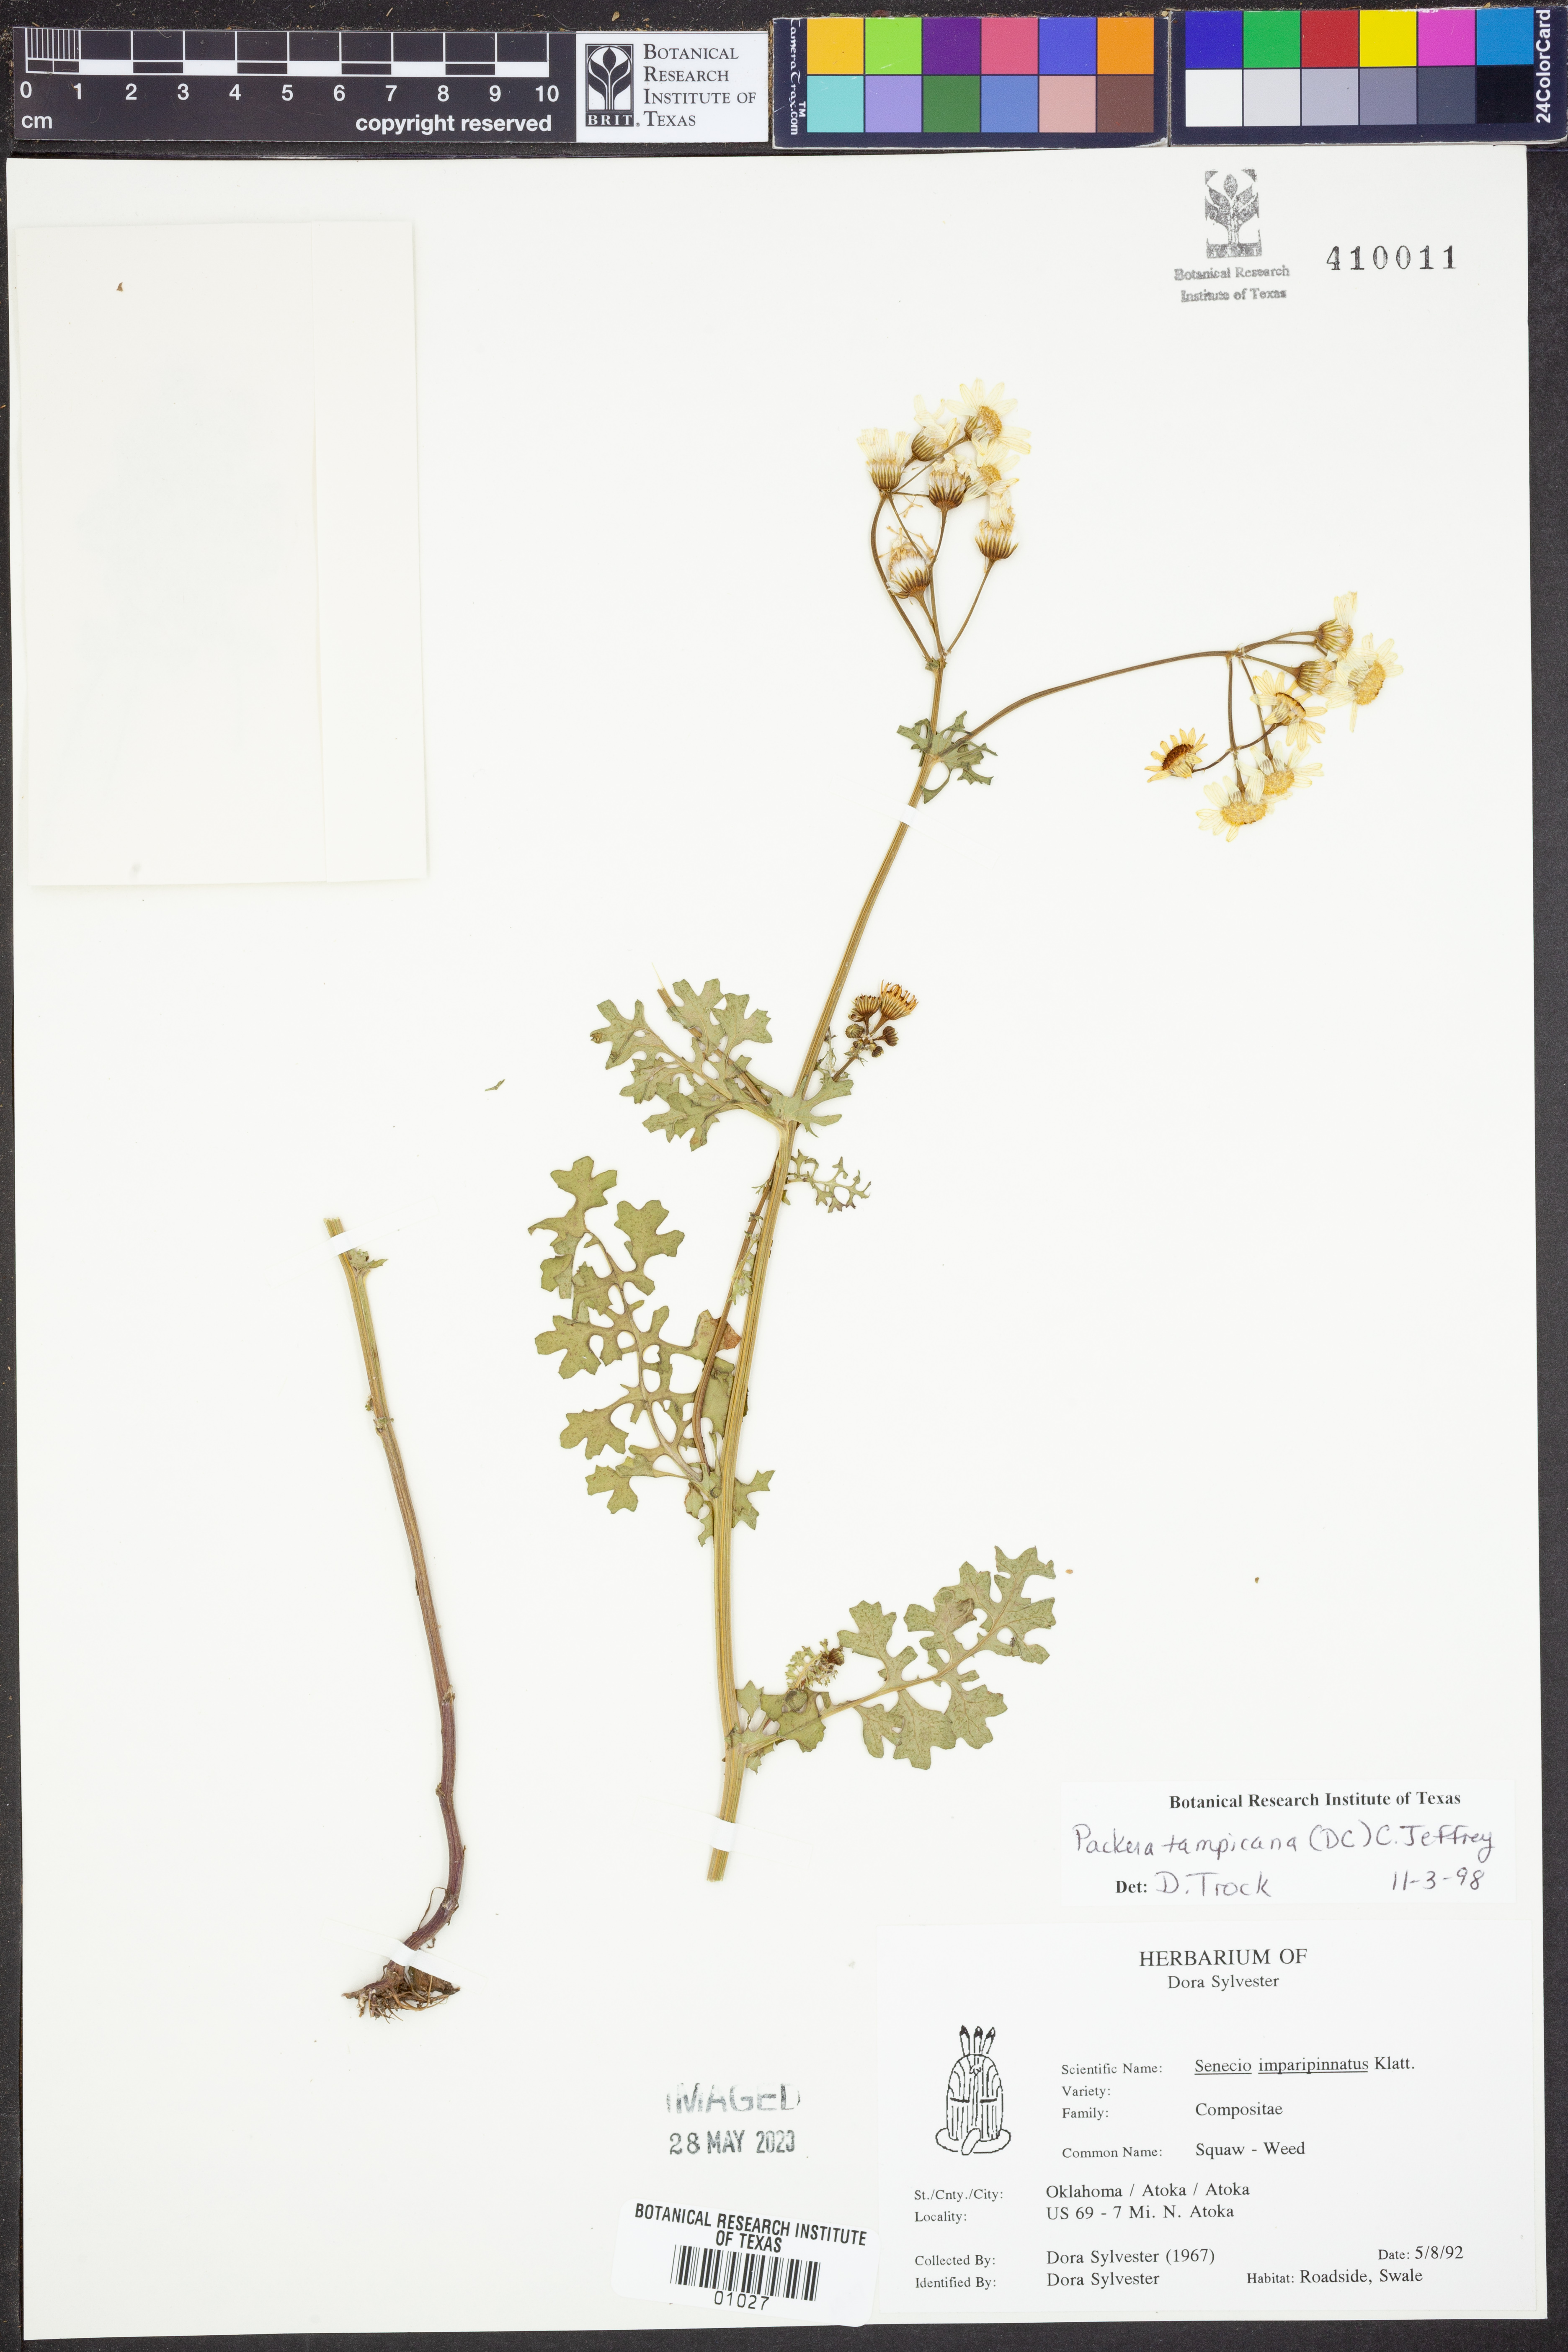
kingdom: Plantae
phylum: Tracheophyta
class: Magnoliopsida
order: Asterales
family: Asteraceae
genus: Packera
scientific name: Packera tampicana
